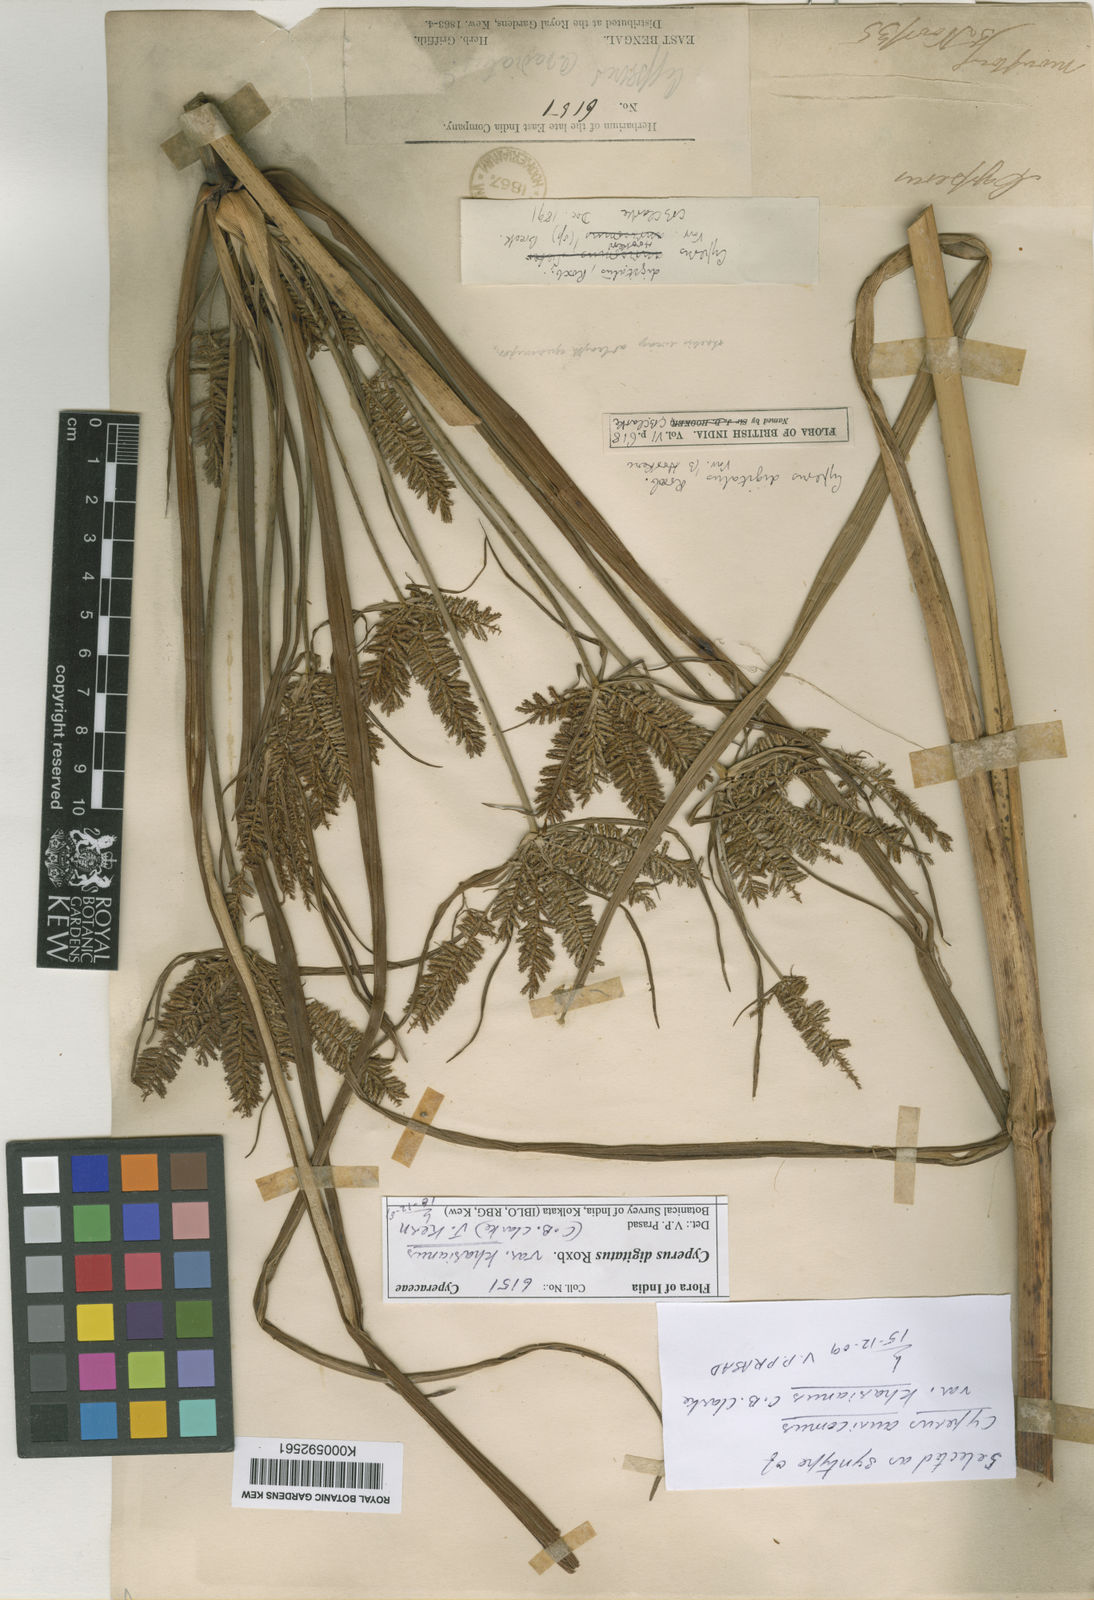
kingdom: Plantae
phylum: Tracheophyta
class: Liliopsida
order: Poales
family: Cyperaceae
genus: Cyperus
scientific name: Cyperus digitatus
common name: Finger flatsedge
